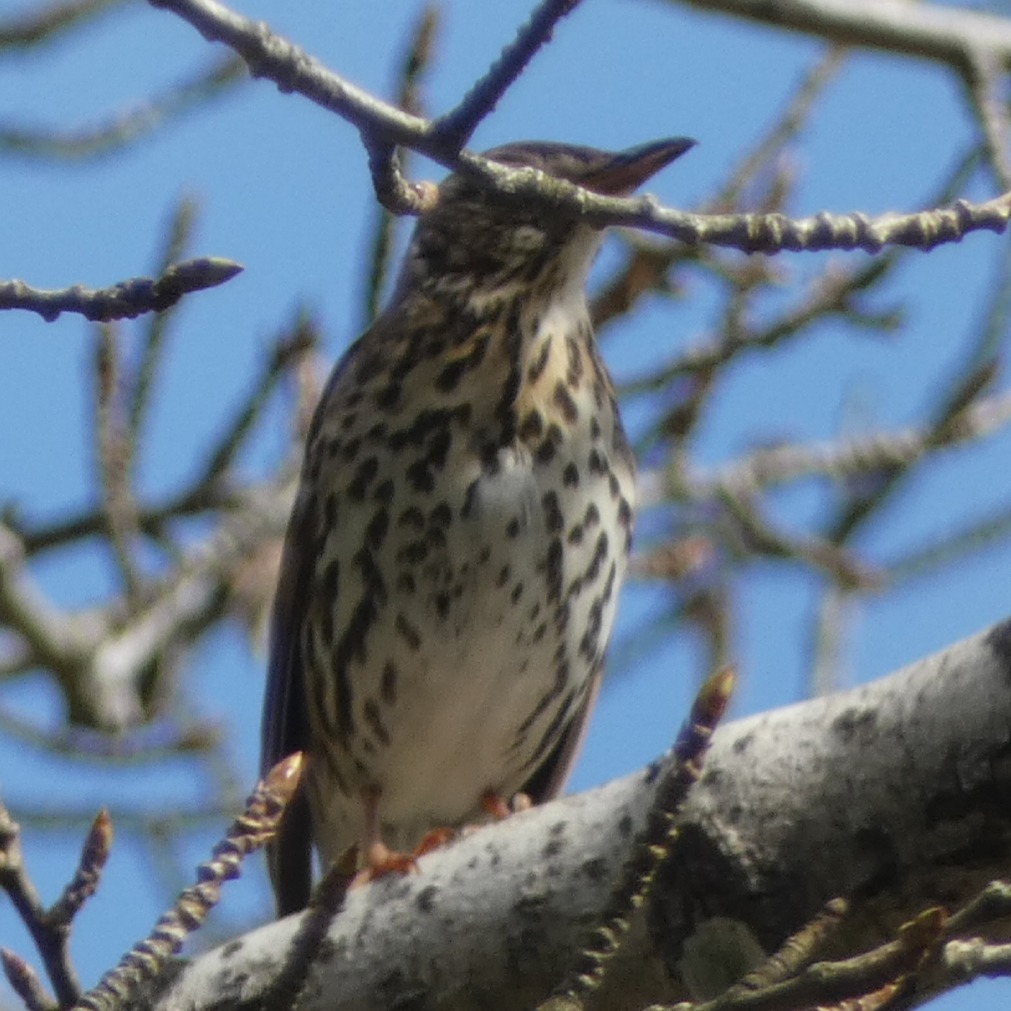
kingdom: Animalia
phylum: Chordata
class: Aves
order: Passeriformes
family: Turdidae
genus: Turdus
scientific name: Turdus philomelos
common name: Sangdrossel
